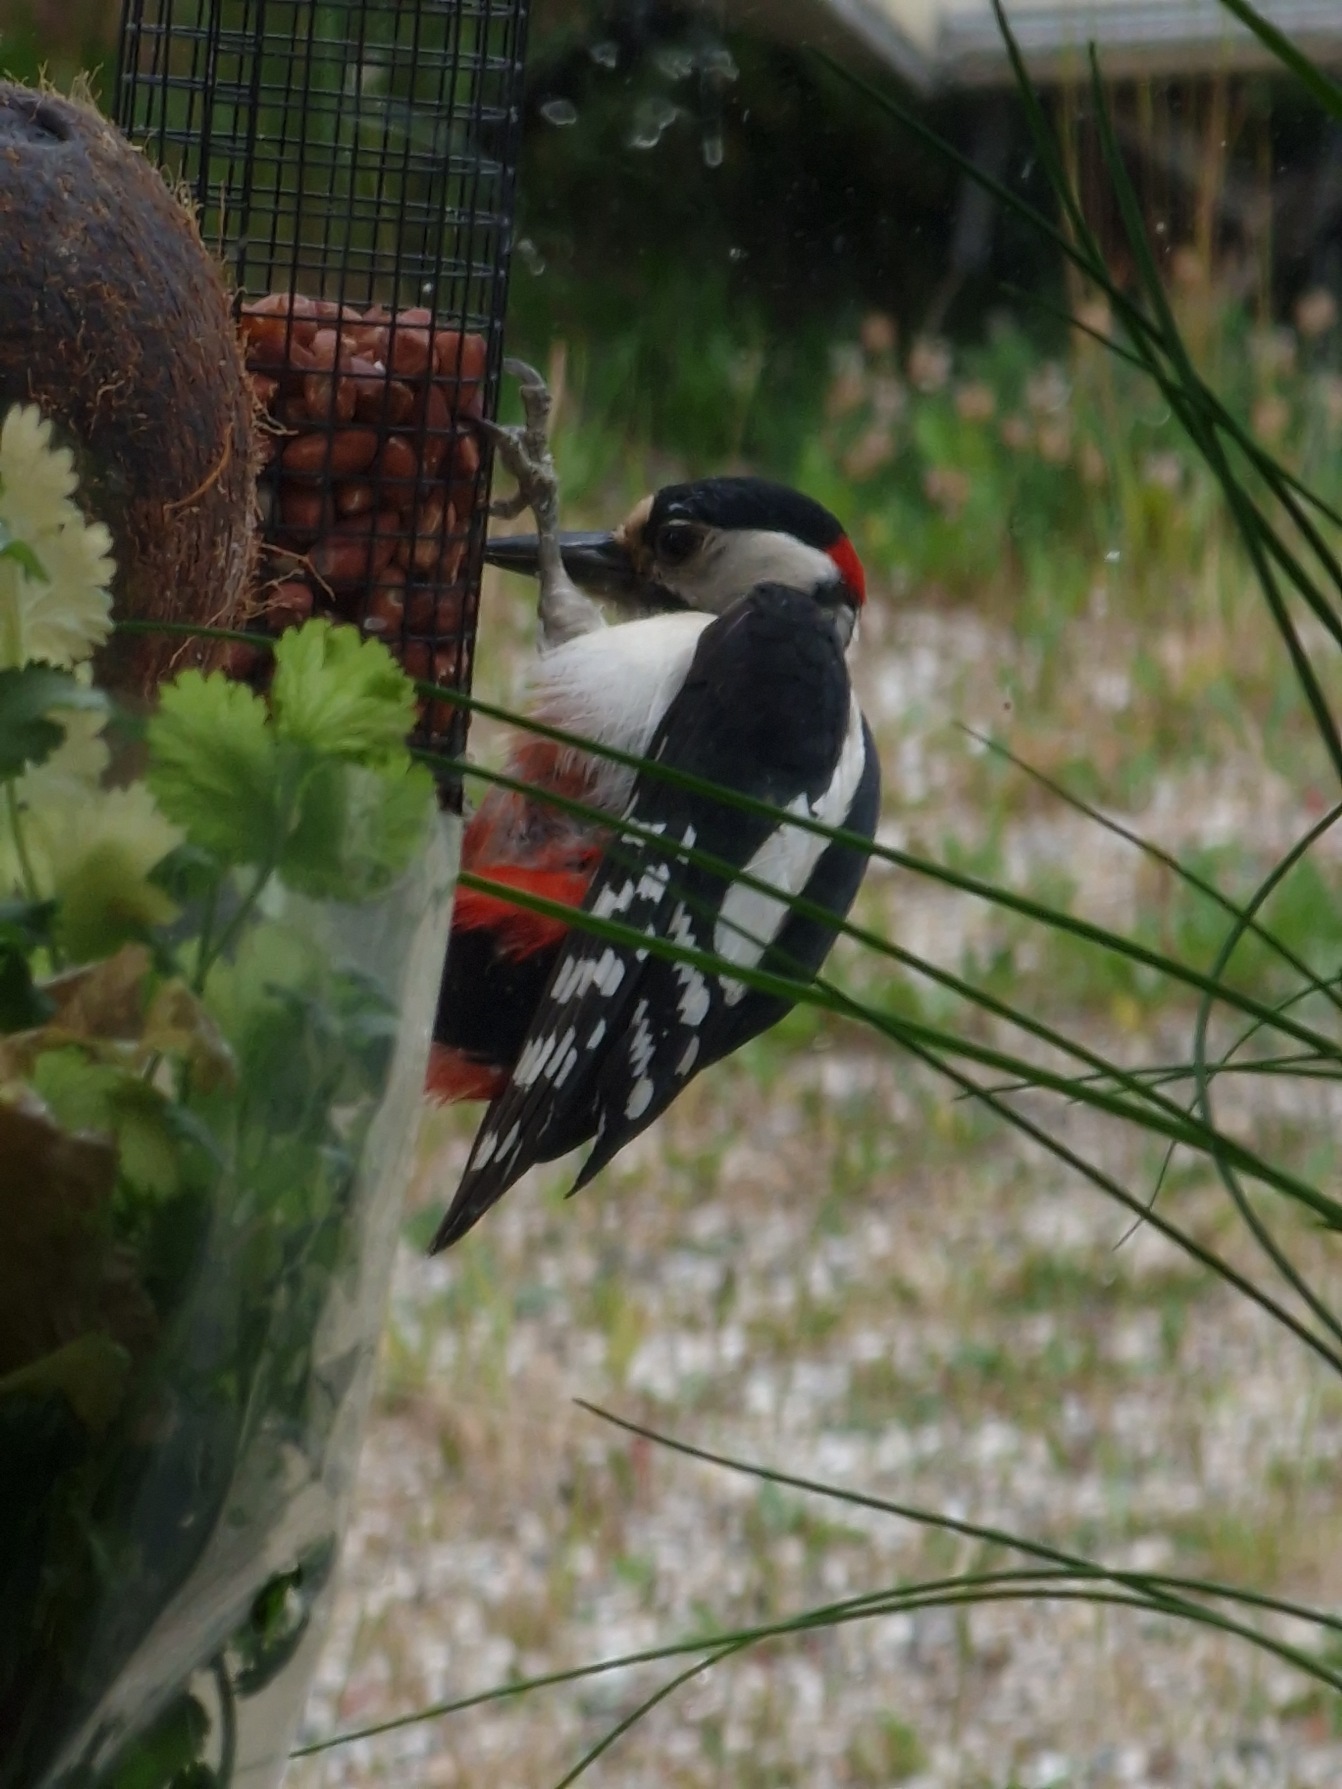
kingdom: Animalia
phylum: Chordata
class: Aves
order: Piciformes
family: Picidae
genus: Dendrocopos
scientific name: Dendrocopos major
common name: Stor flagspætte
